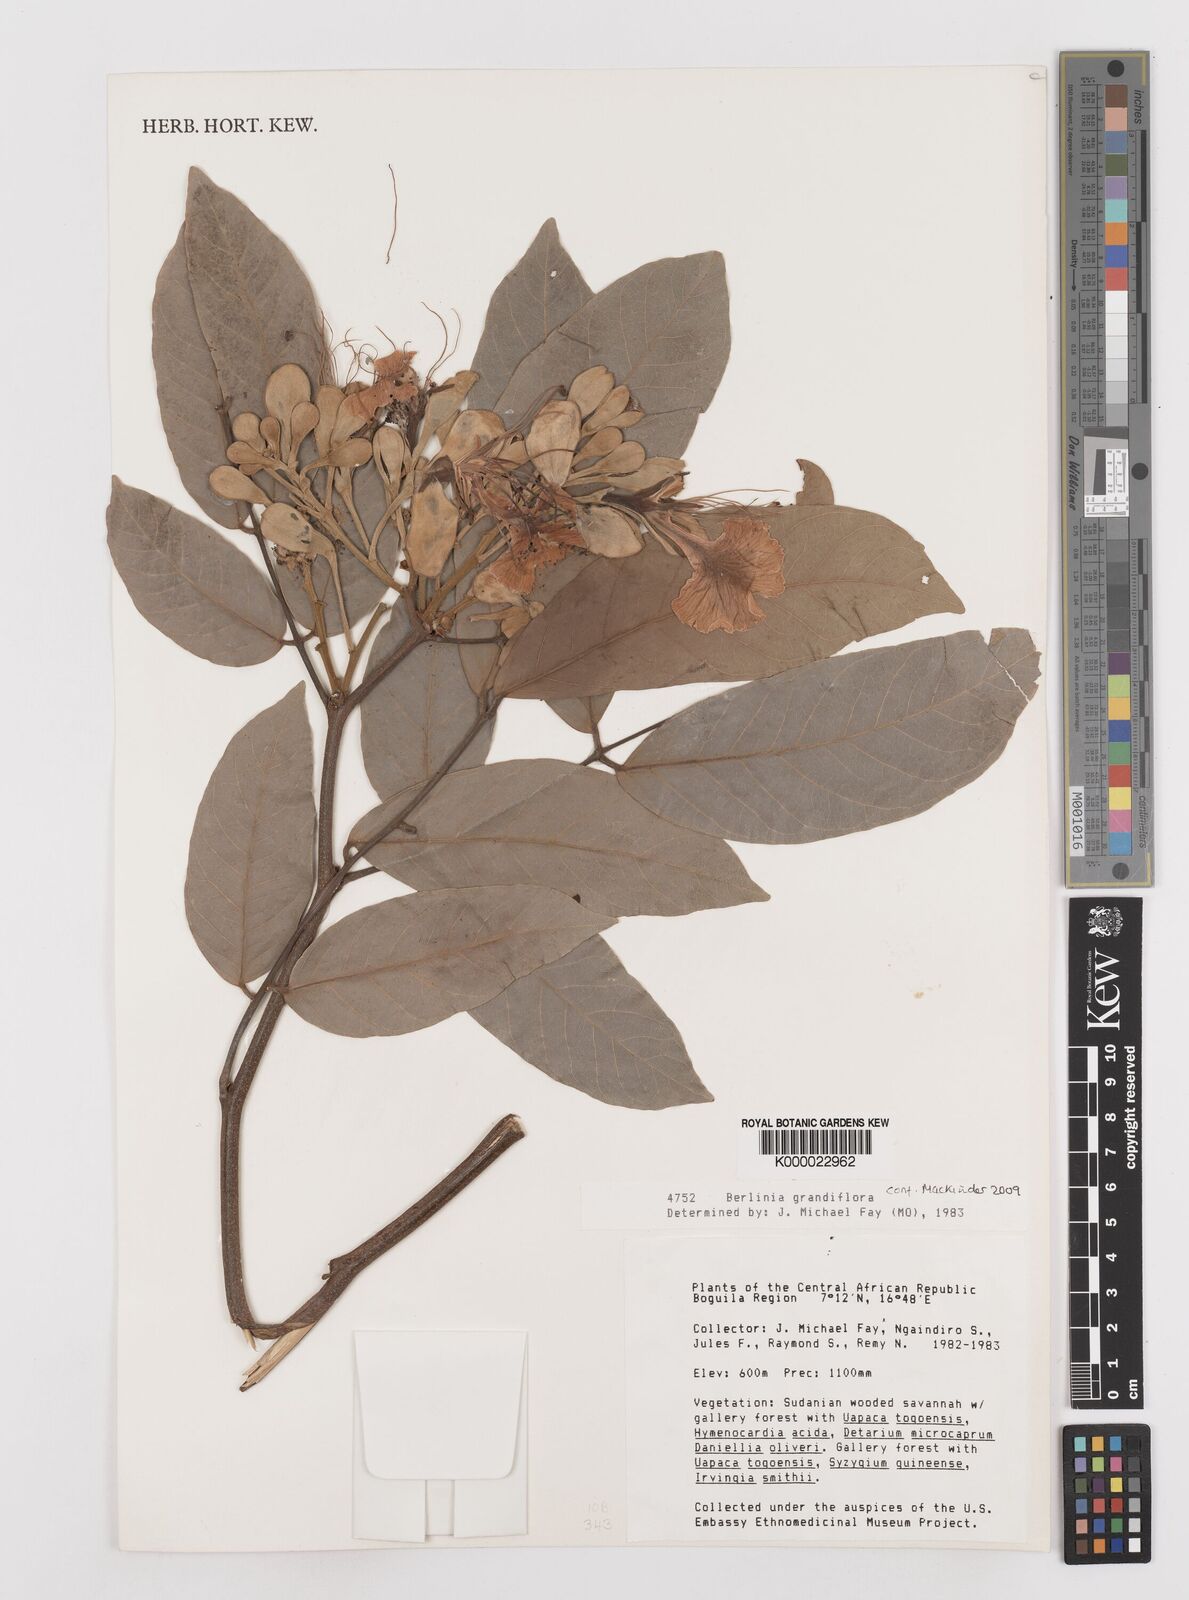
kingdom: Plantae
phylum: Tracheophyta
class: Magnoliopsida
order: Fabales
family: Fabaceae
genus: Berlinia
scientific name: Berlinia grandiflora
